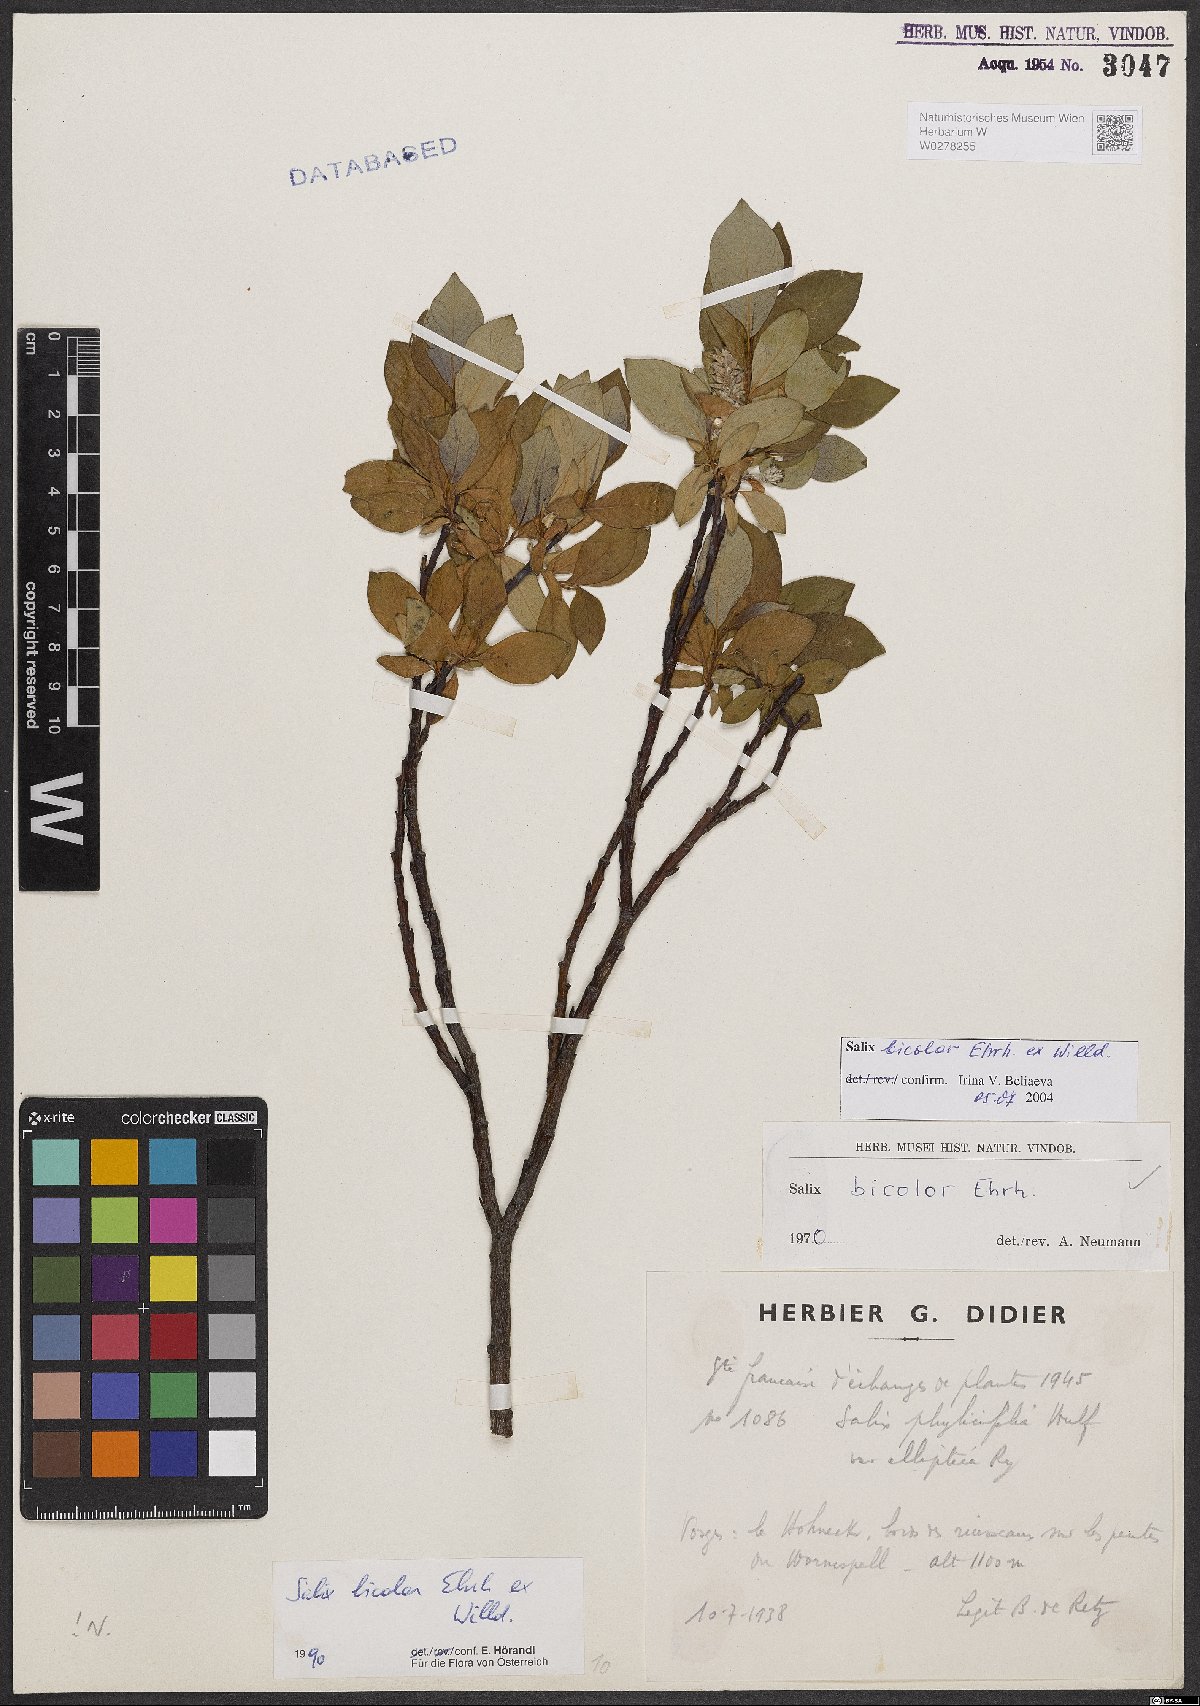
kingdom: Plantae
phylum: Tracheophyta
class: Magnoliopsida
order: Malpighiales
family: Salicaceae
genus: Salix
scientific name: Salix bicolor
